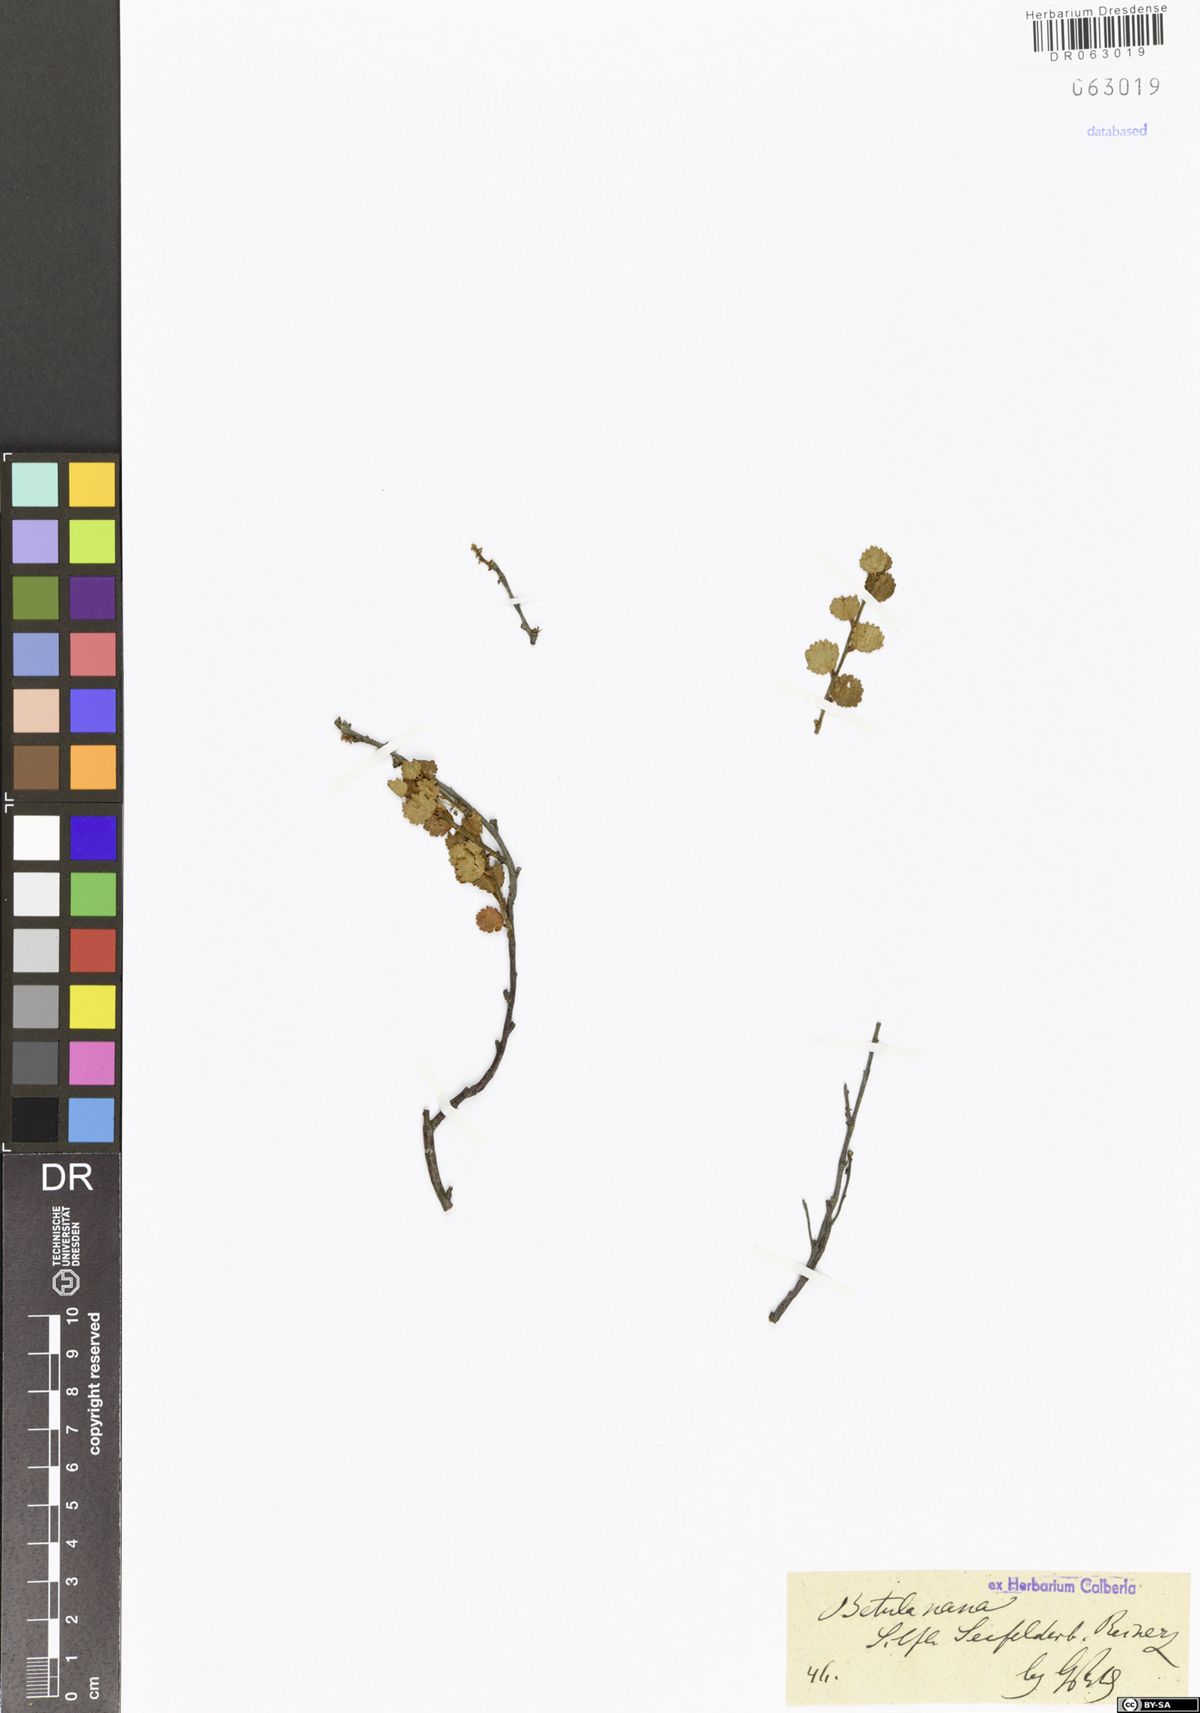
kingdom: Plantae
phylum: Tracheophyta
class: Magnoliopsida
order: Fagales
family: Betulaceae
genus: Betula
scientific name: Betula nana
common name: Arctic dwarf birch
